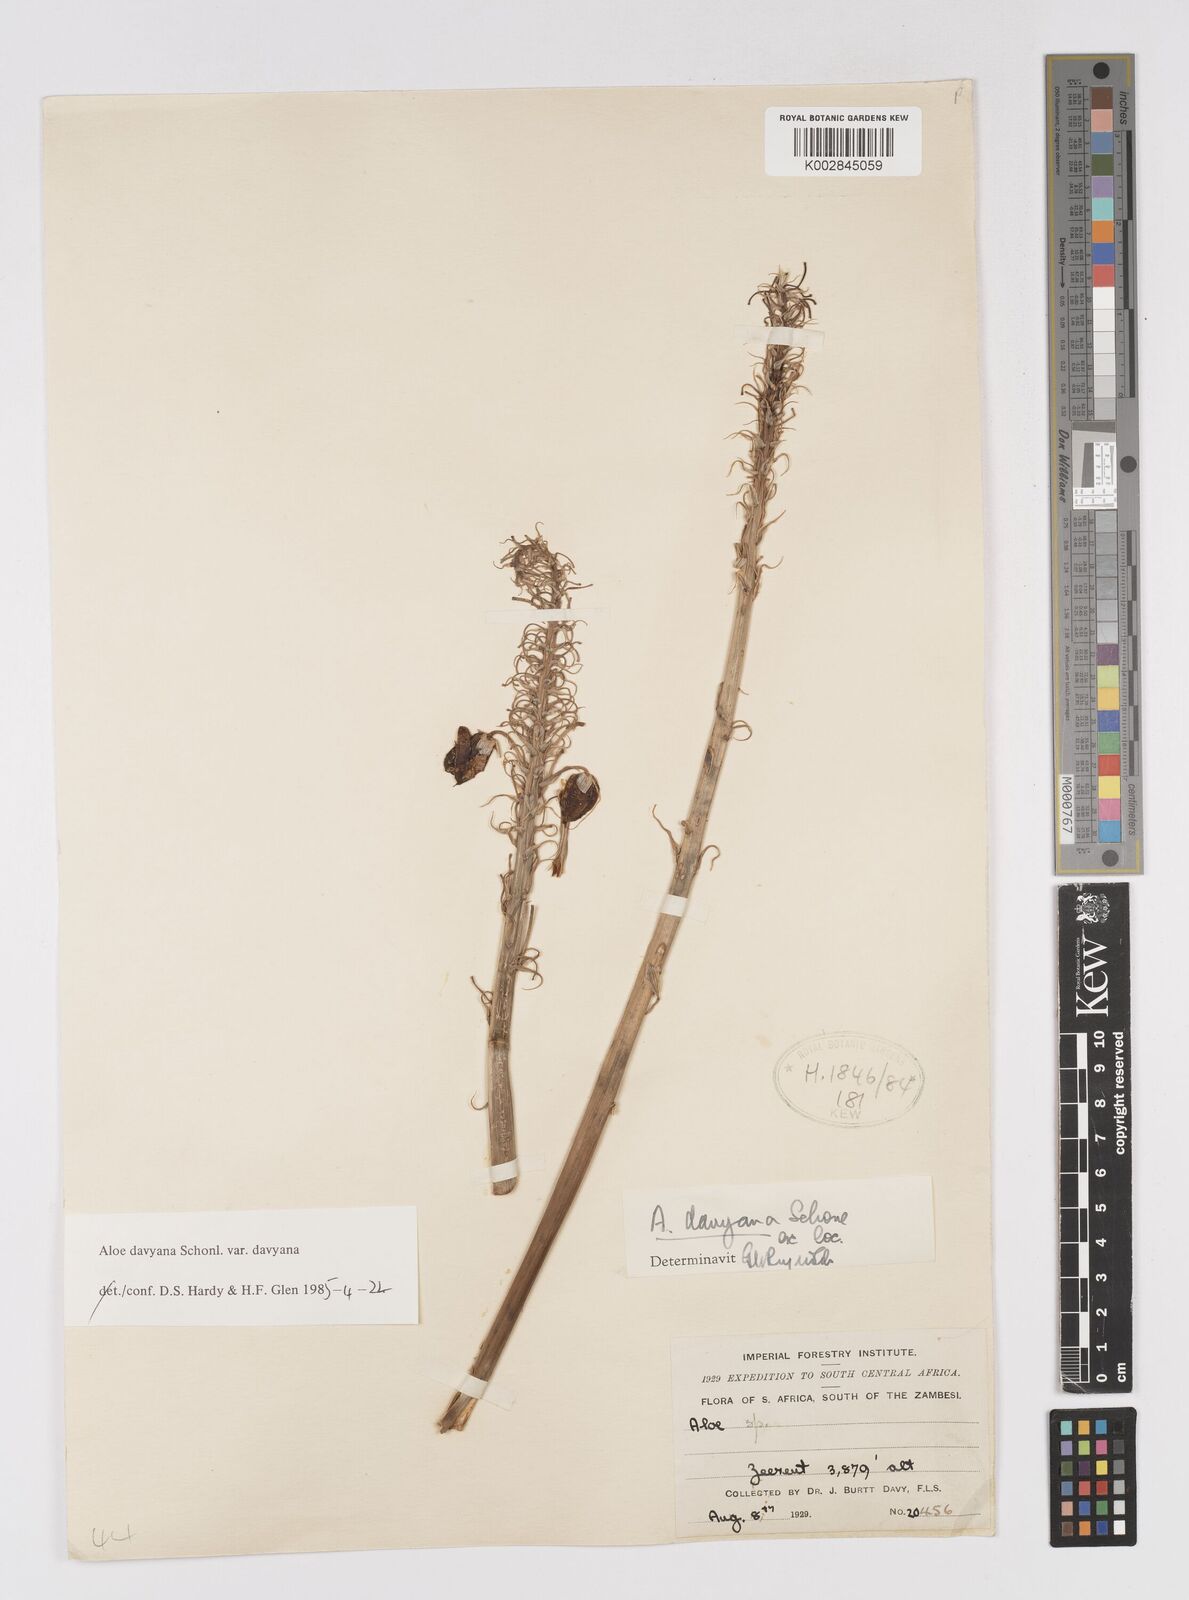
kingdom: Plantae
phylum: Tracheophyta
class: Liliopsida
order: Asparagales
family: Asphodelaceae
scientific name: Asphodelaceae
